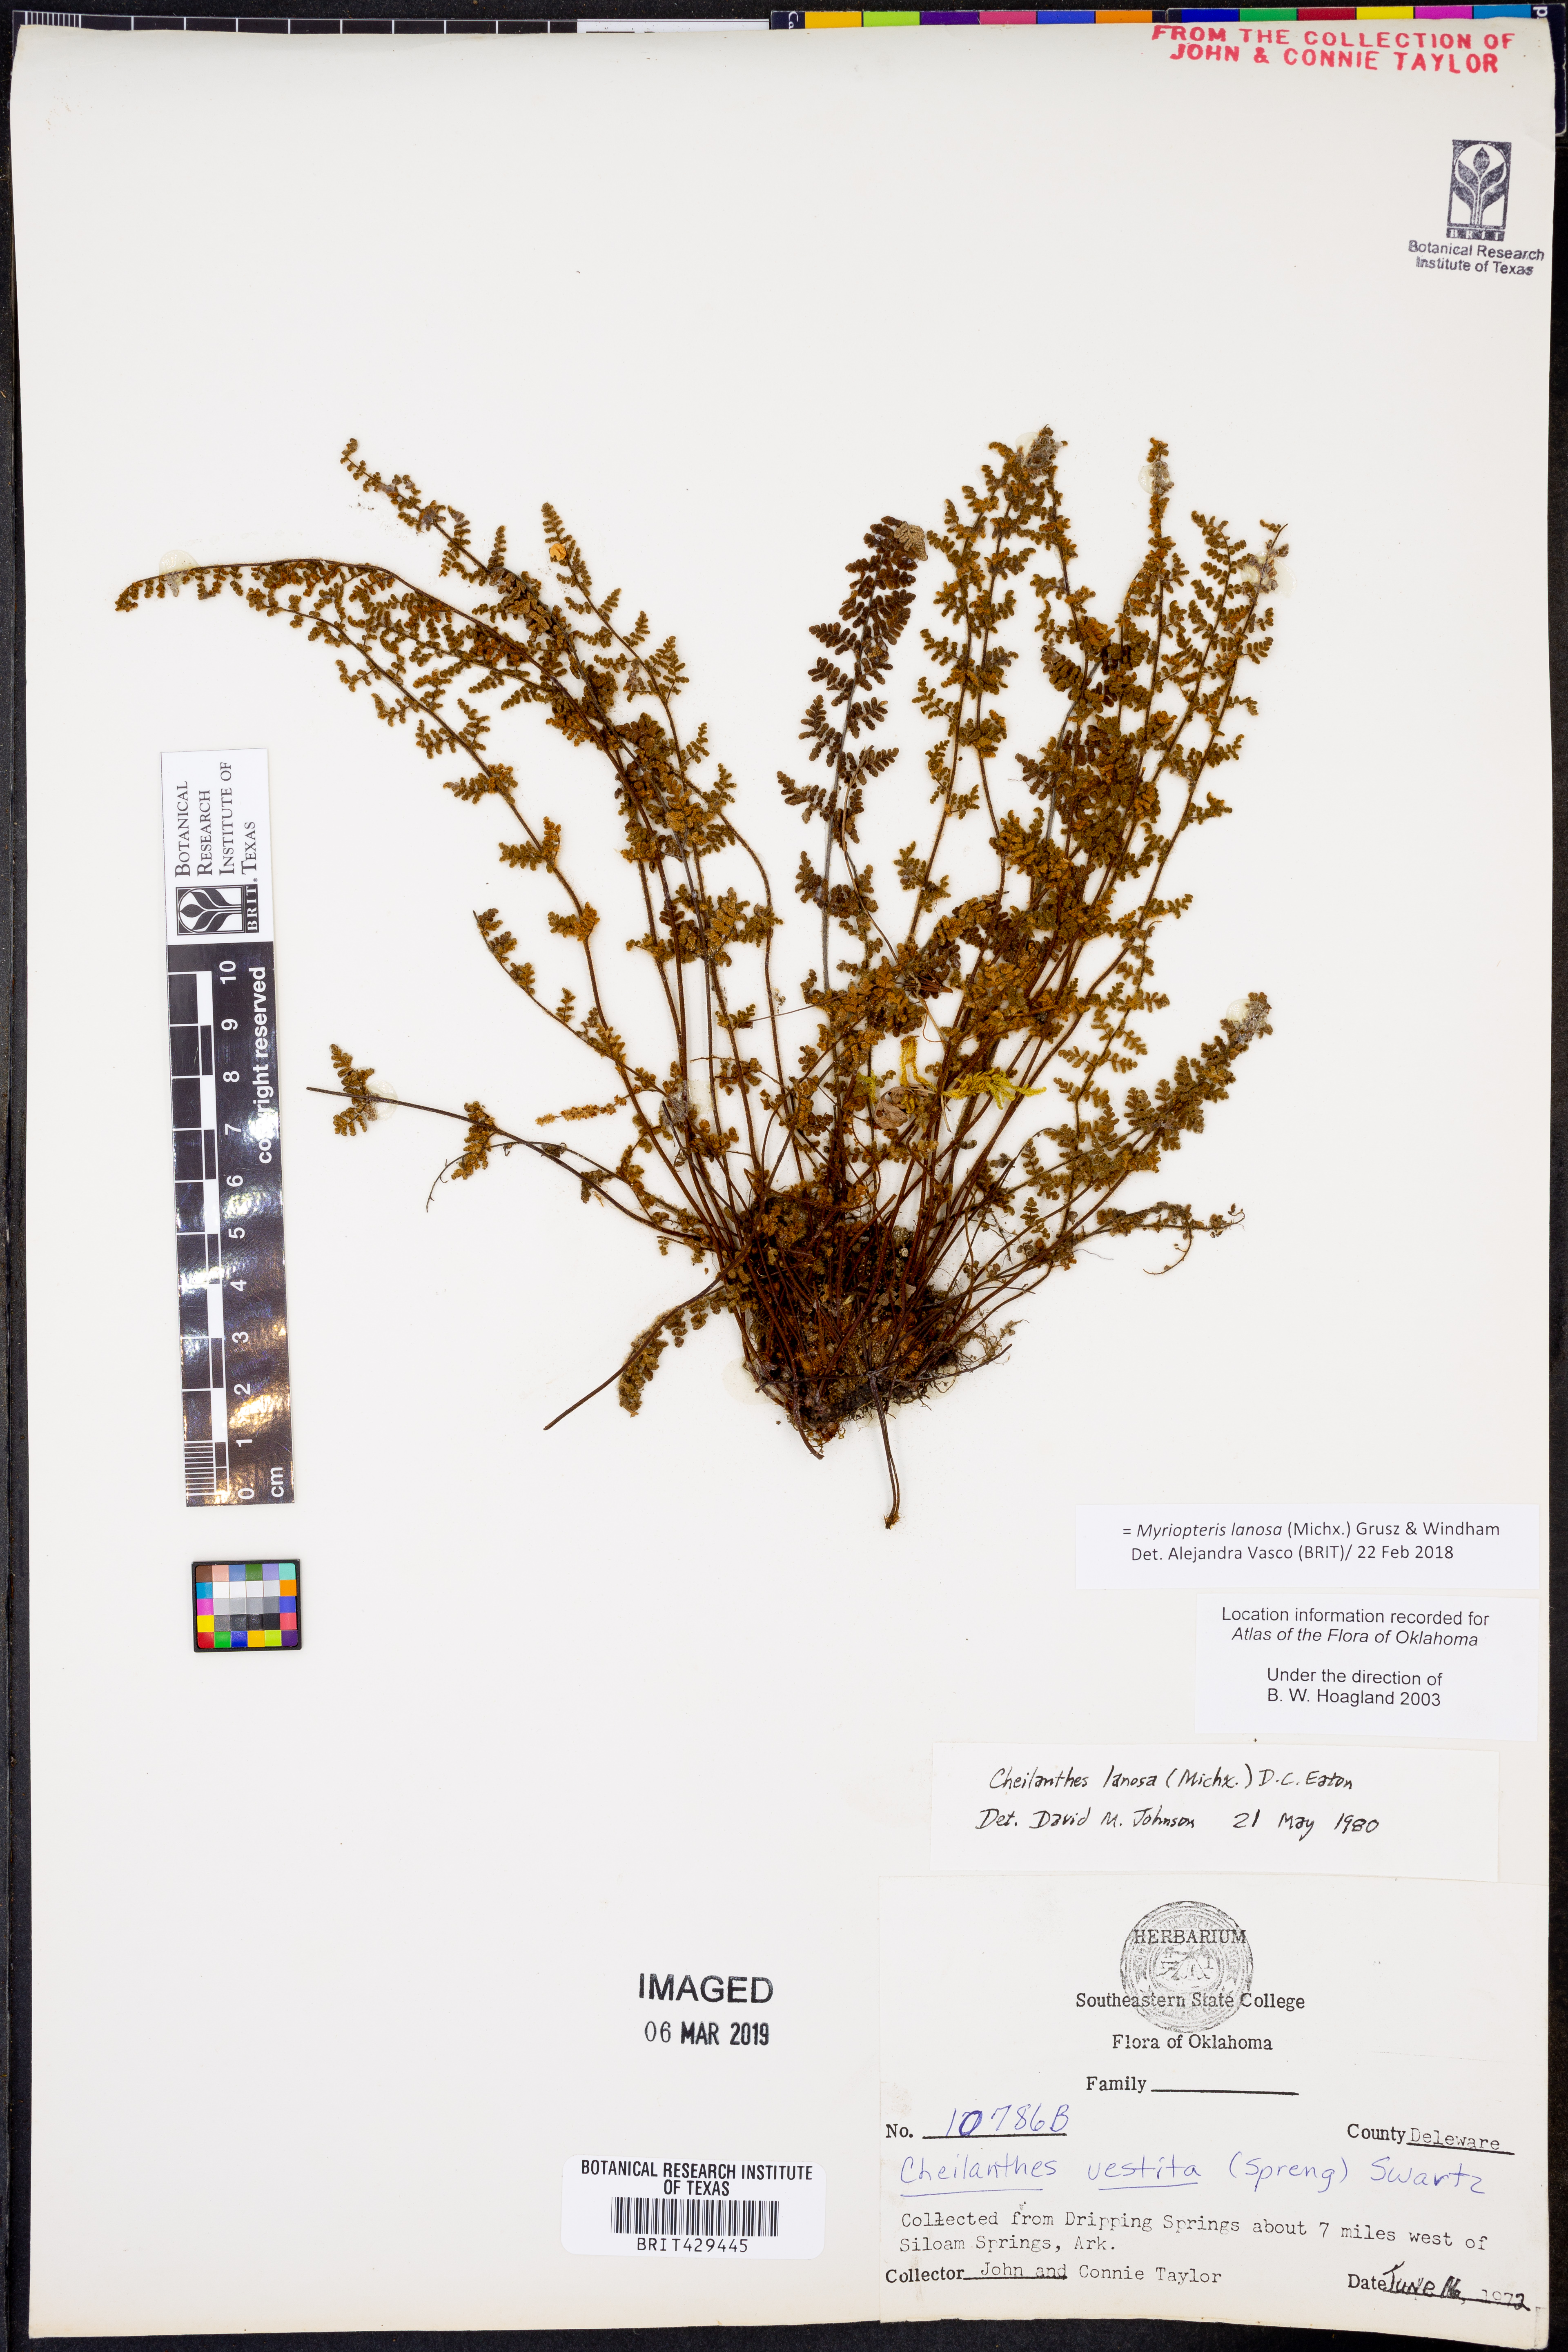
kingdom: Plantae
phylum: Tracheophyta
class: Polypodiopsida
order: Polypodiales
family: Pteridaceae
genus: Myriopteris
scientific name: Myriopteris lanosa
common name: Hairy lip fern
